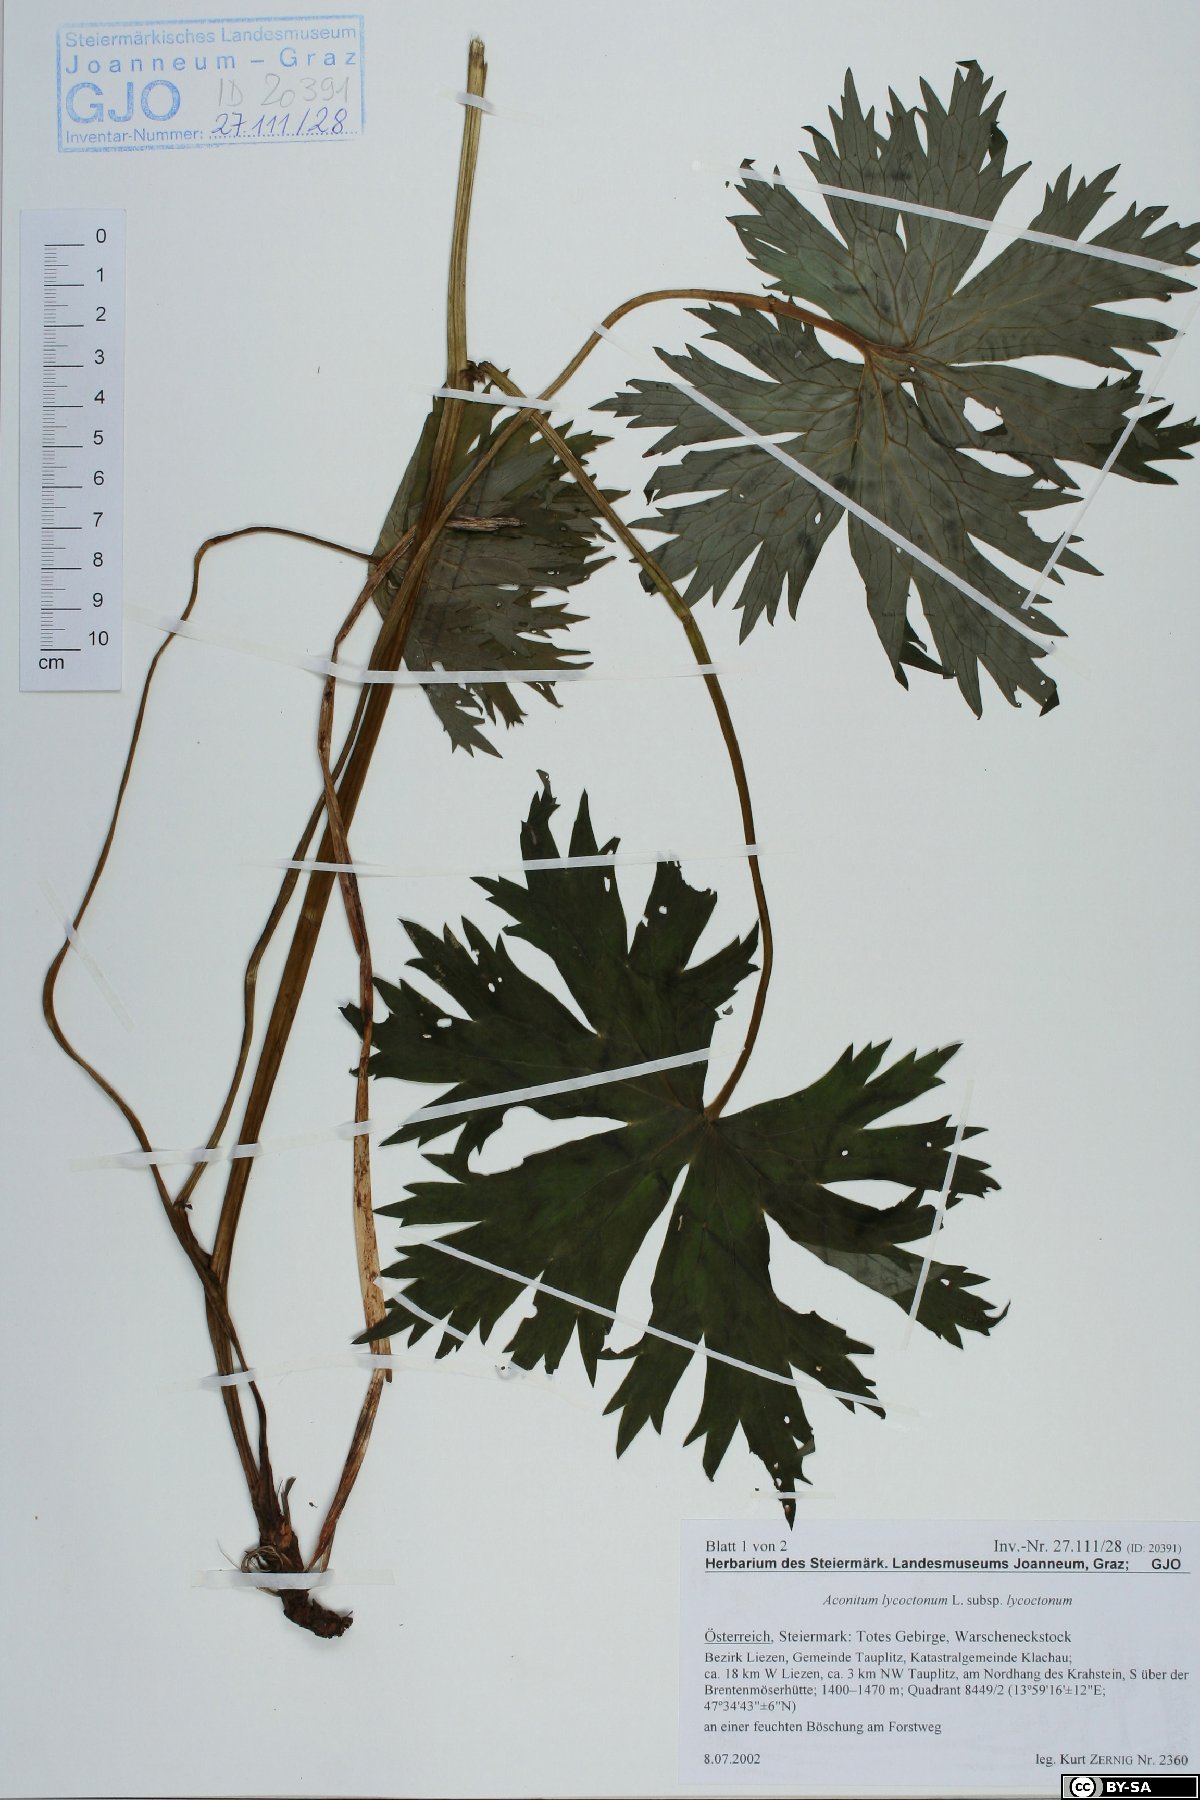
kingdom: Plantae
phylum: Tracheophyta
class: Magnoliopsida
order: Ranunculales
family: Ranunculaceae
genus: Aconitum
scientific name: Aconitum lycoctonum
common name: Wolf's-bane
